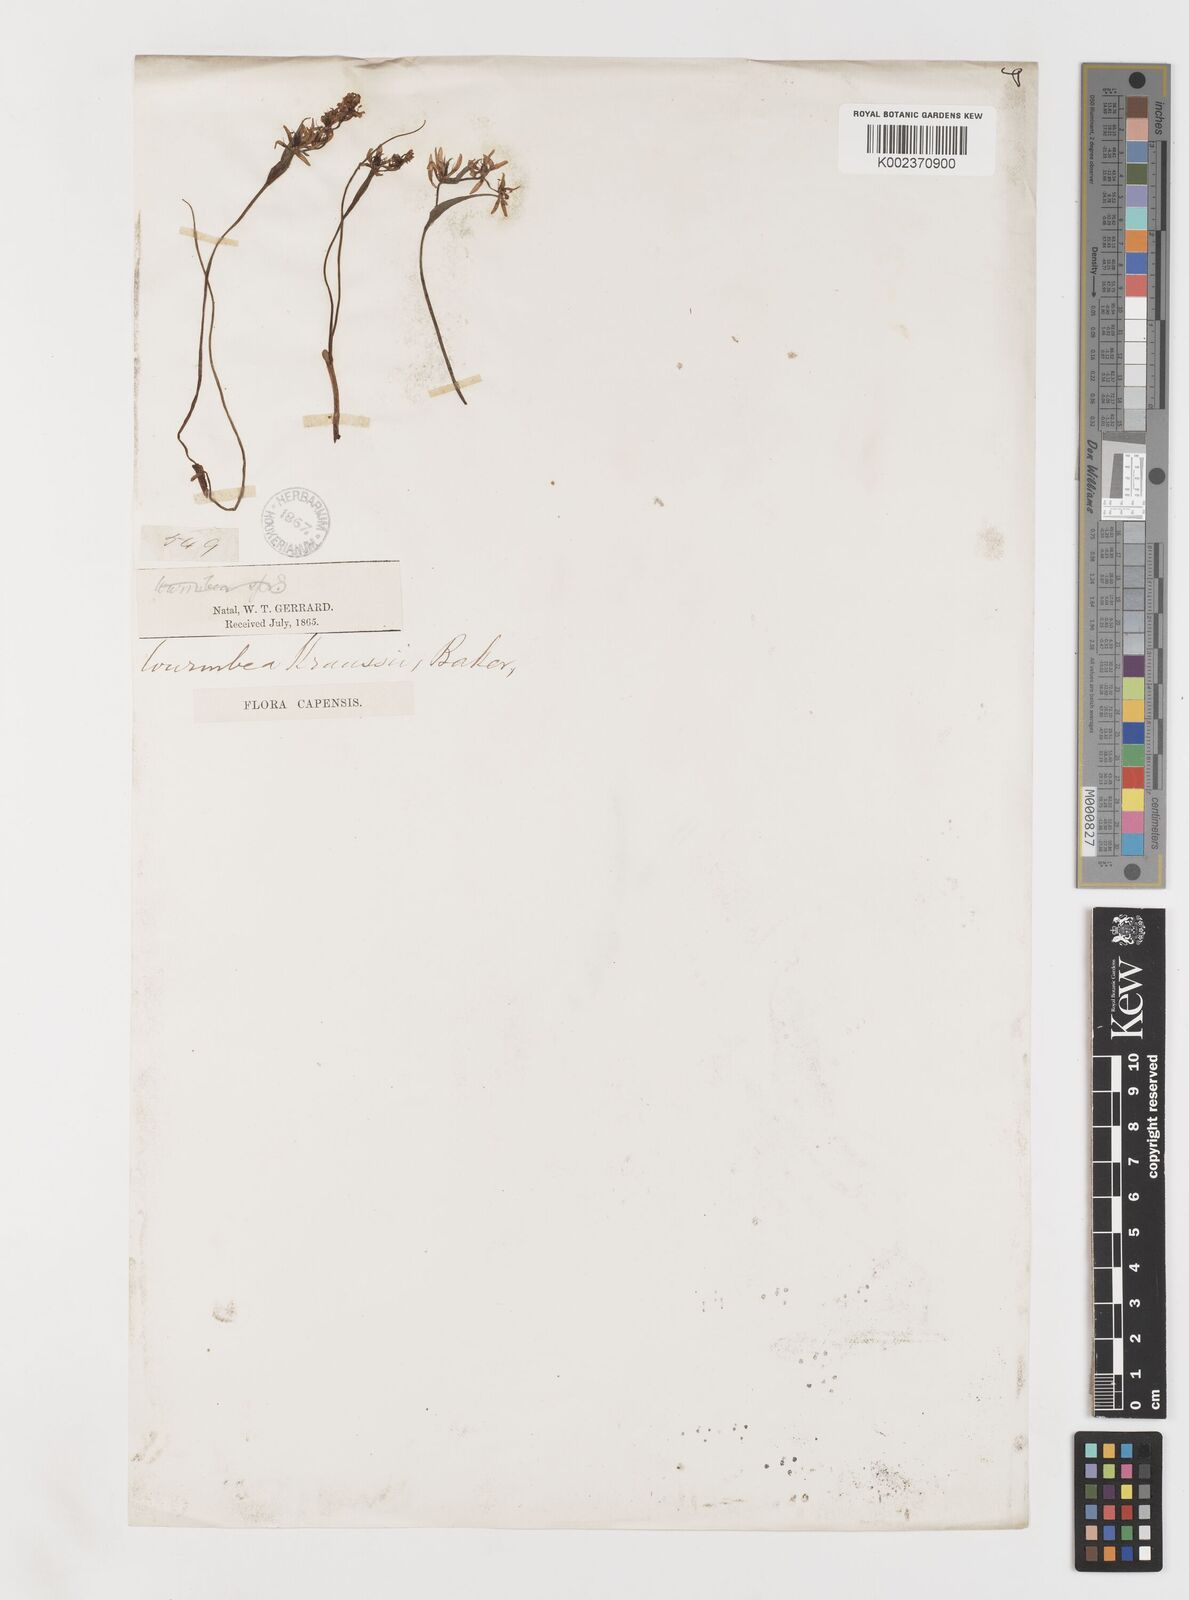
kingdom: Plantae
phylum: Tracheophyta
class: Liliopsida
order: Liliales
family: Colchicaceae
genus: Wurmbea
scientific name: Wurmbea kraussii
